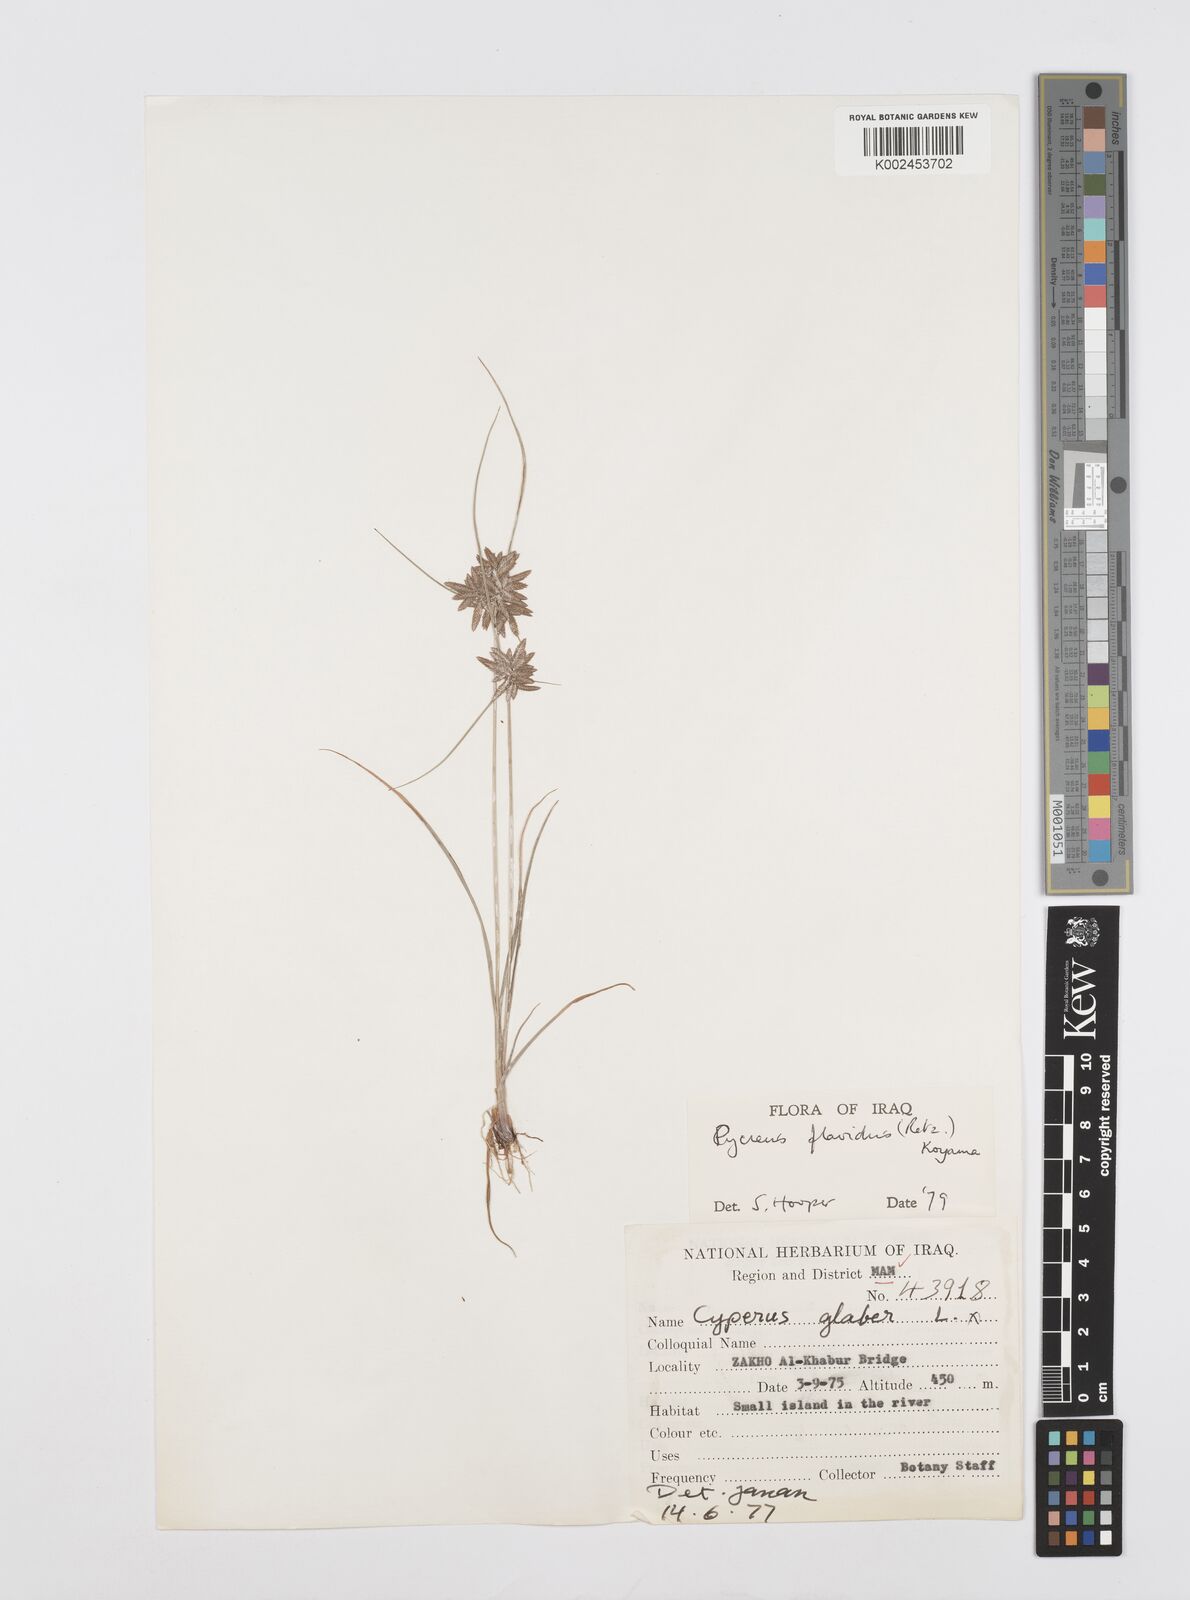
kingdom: Plantae
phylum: Tracheophyta
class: Liliopsida
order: Poales
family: Cyperaceae
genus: Cyperus
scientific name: Cyperus flavidus
